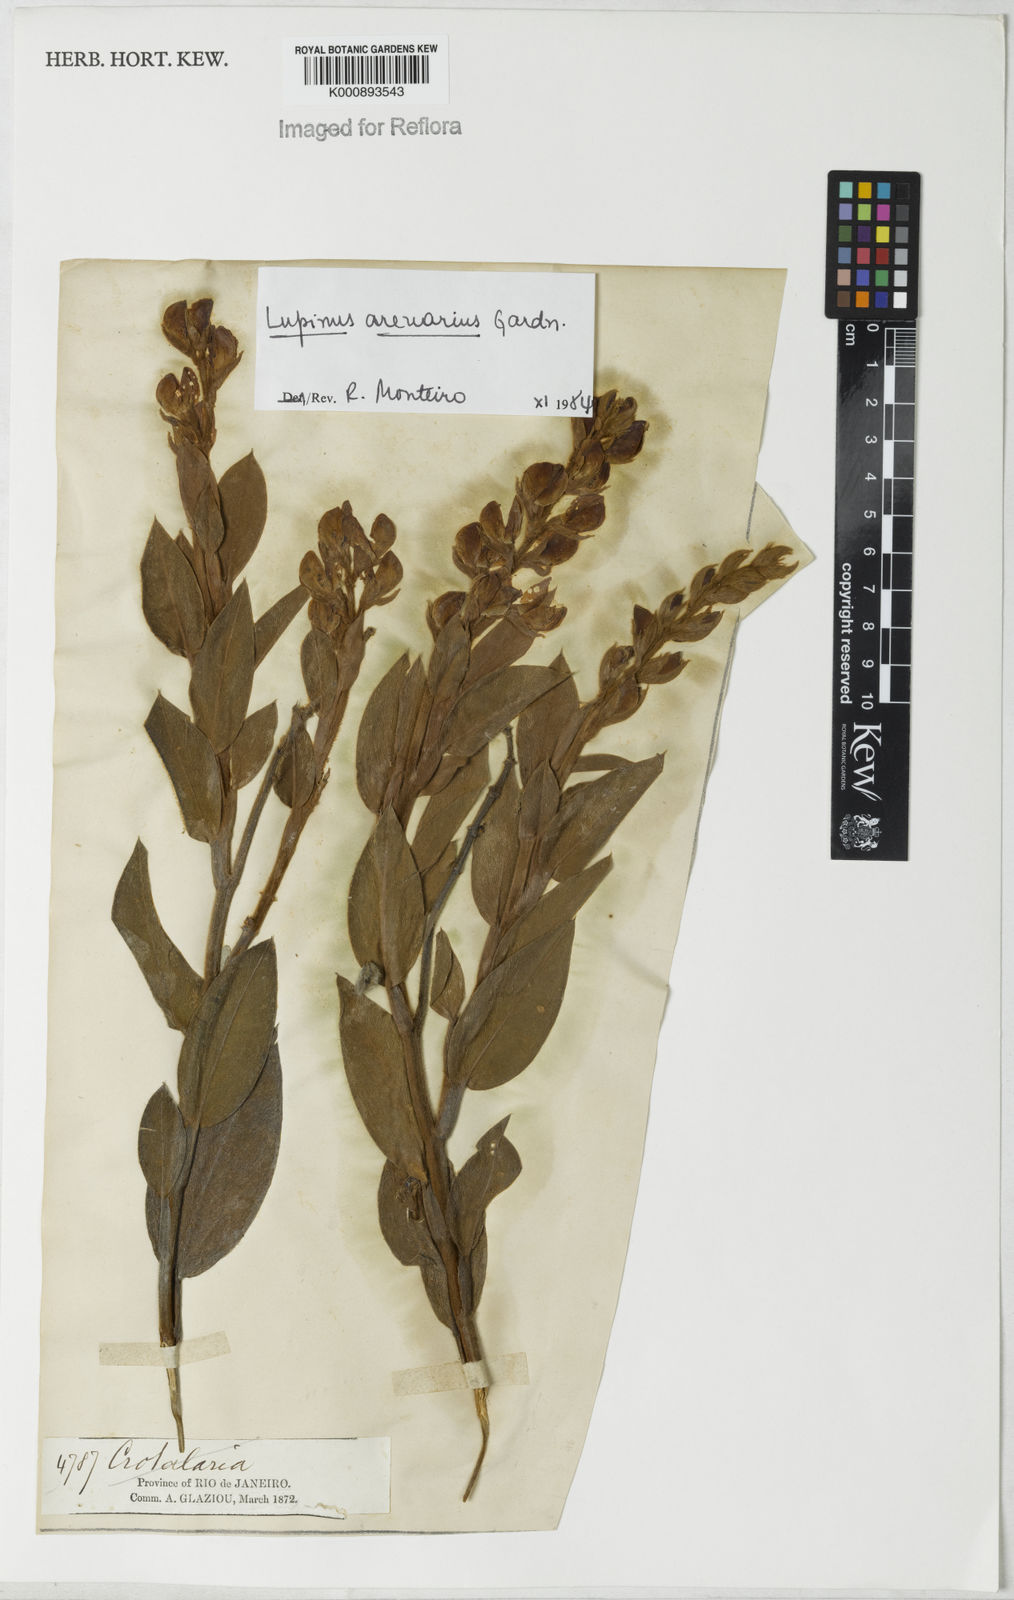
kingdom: Plantae
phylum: Tracheophyta
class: Magnoliopsida
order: Fabales
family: Fabaceae
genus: Lupinus
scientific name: Lupinus arenarius
